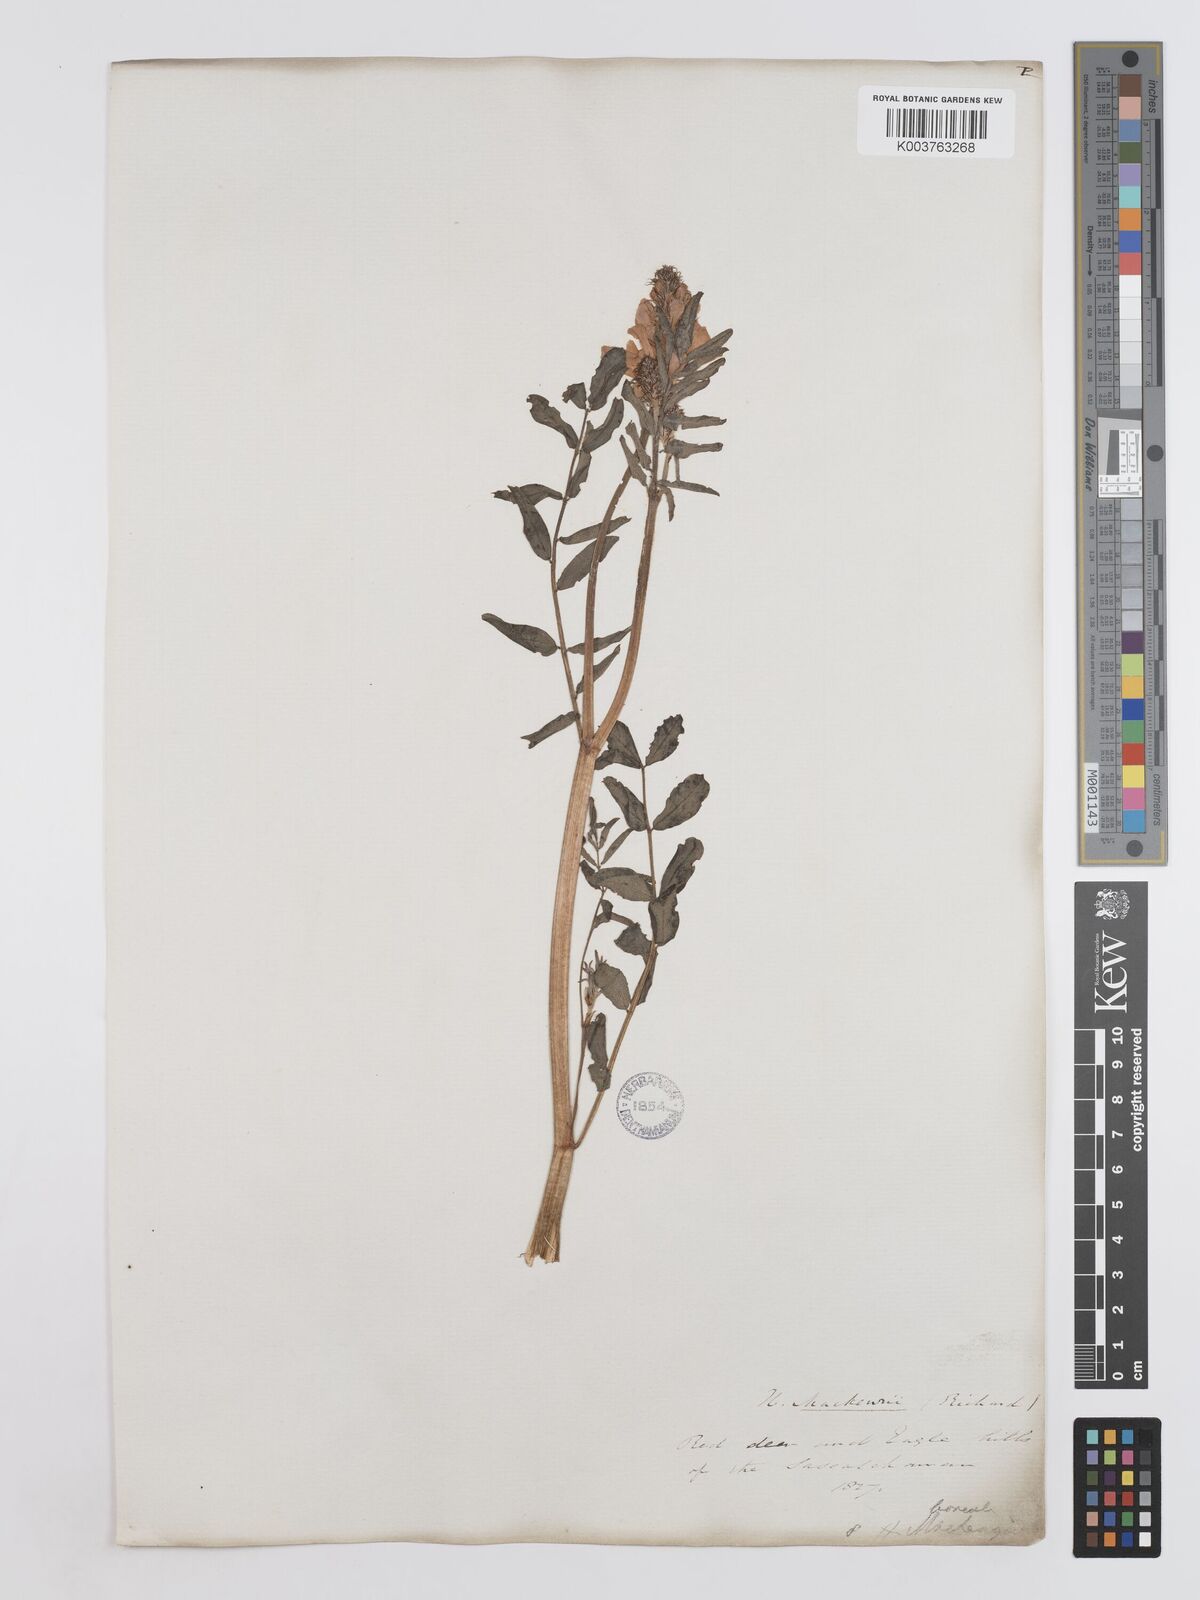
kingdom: Plantae
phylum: Tracheophyta
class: Magnoliopsida
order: Fabales
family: Fabaceae
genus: Hedysarum
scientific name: Hedysarum boreale
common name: Northern sweet-vetch
